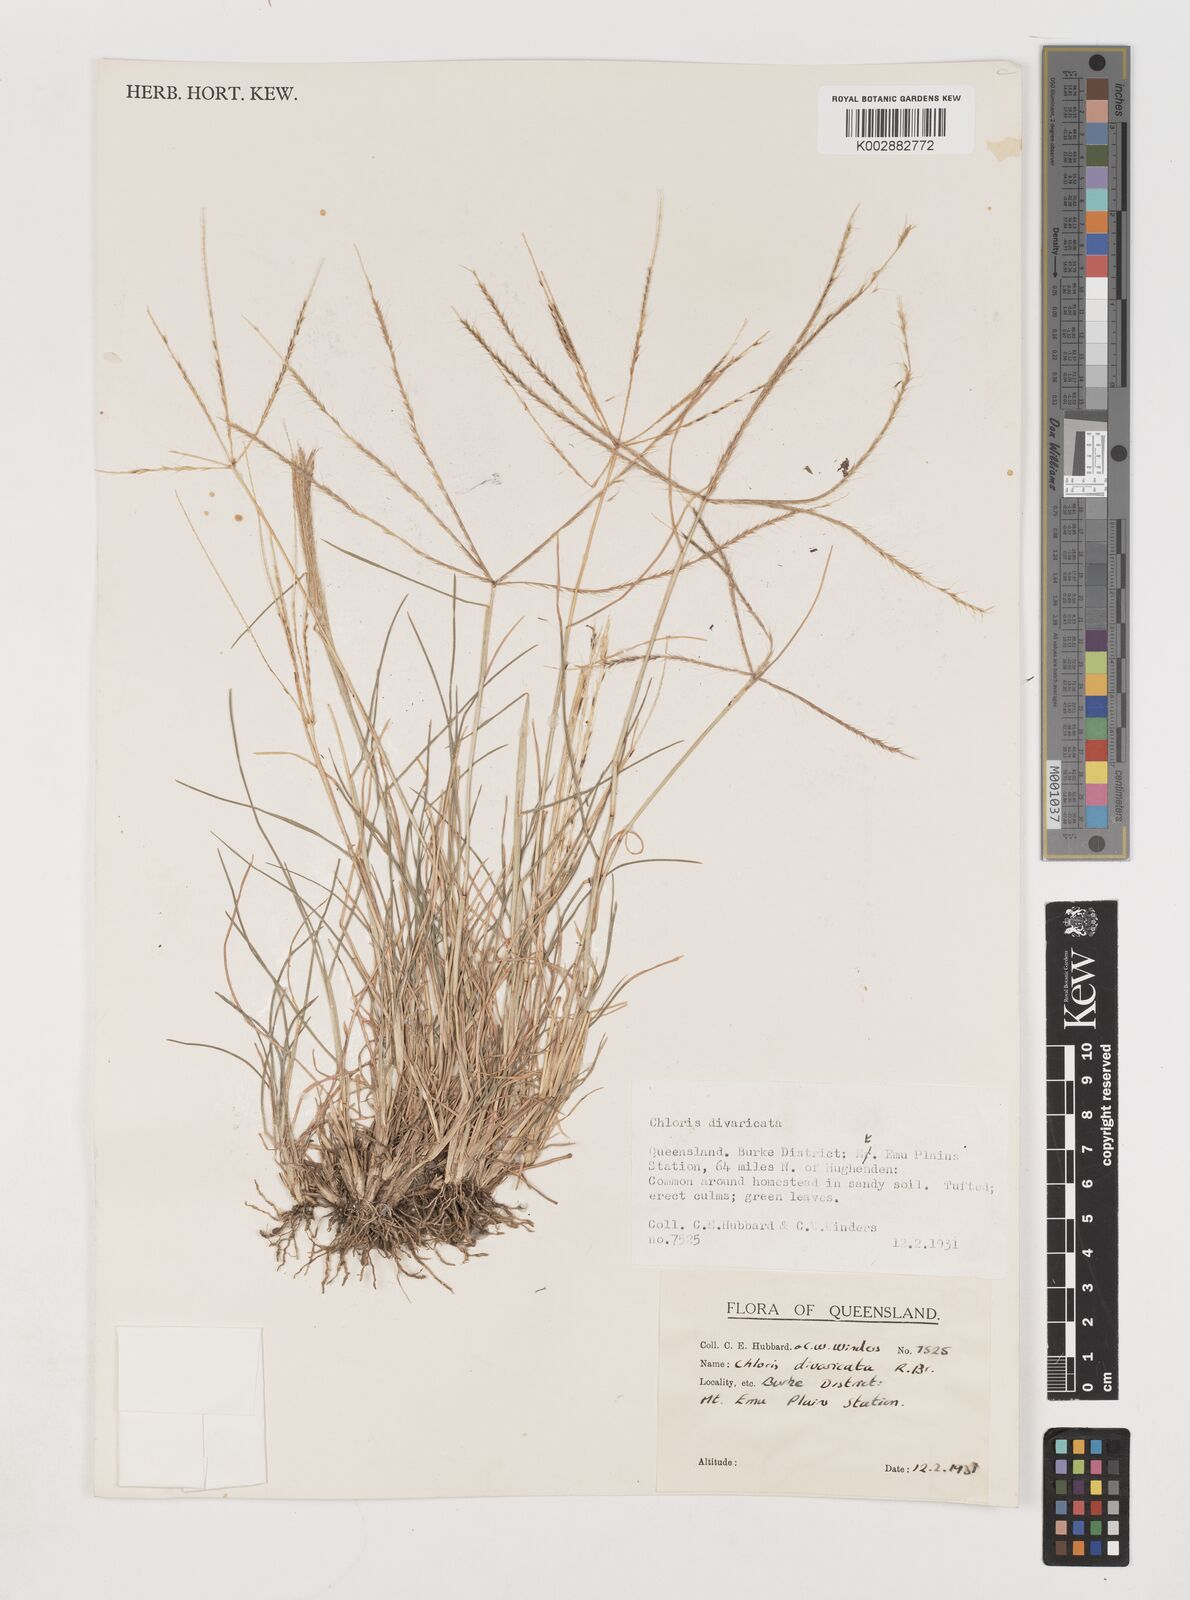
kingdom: Plantae
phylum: Tracheophyta
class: Liliopsida
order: Poales
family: Poaceae
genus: Chloris
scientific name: Chloris divaricata
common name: Spreading windmill grass
